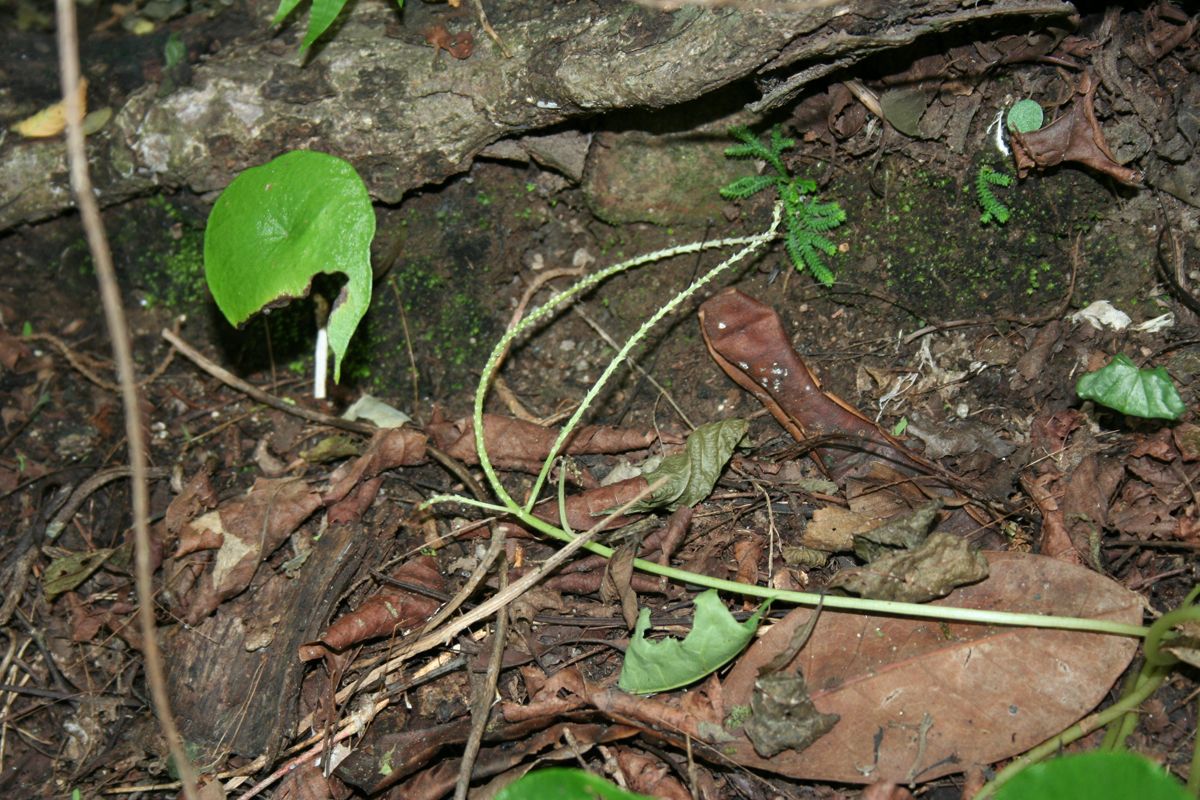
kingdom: Plantae
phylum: Tracheophyta
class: Magnoliopsida
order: Piperales
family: Piperaceae
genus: Peperomia
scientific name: Peperomia claytonioides
